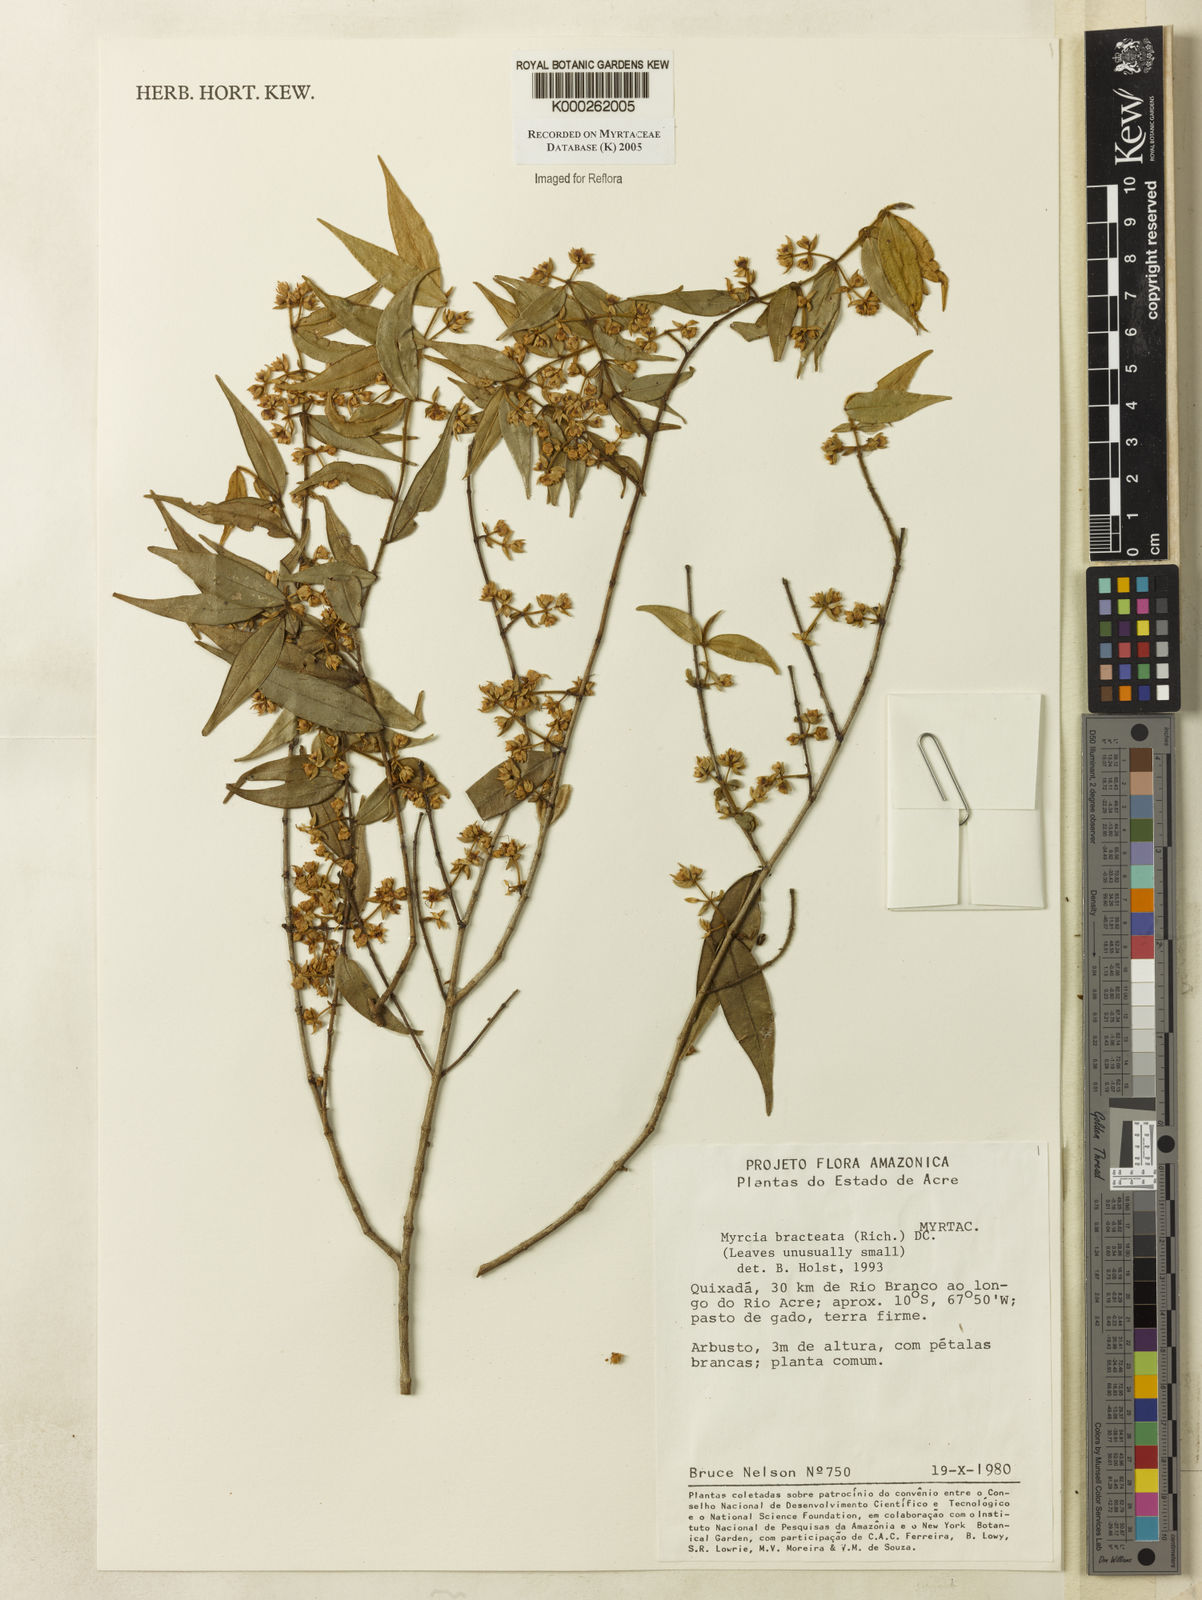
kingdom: Plantae
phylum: Tracheophyta
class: Magnoliopsida
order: Myrtales
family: Myrtaceae
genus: Myrcia
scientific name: Myrcia bracteata
